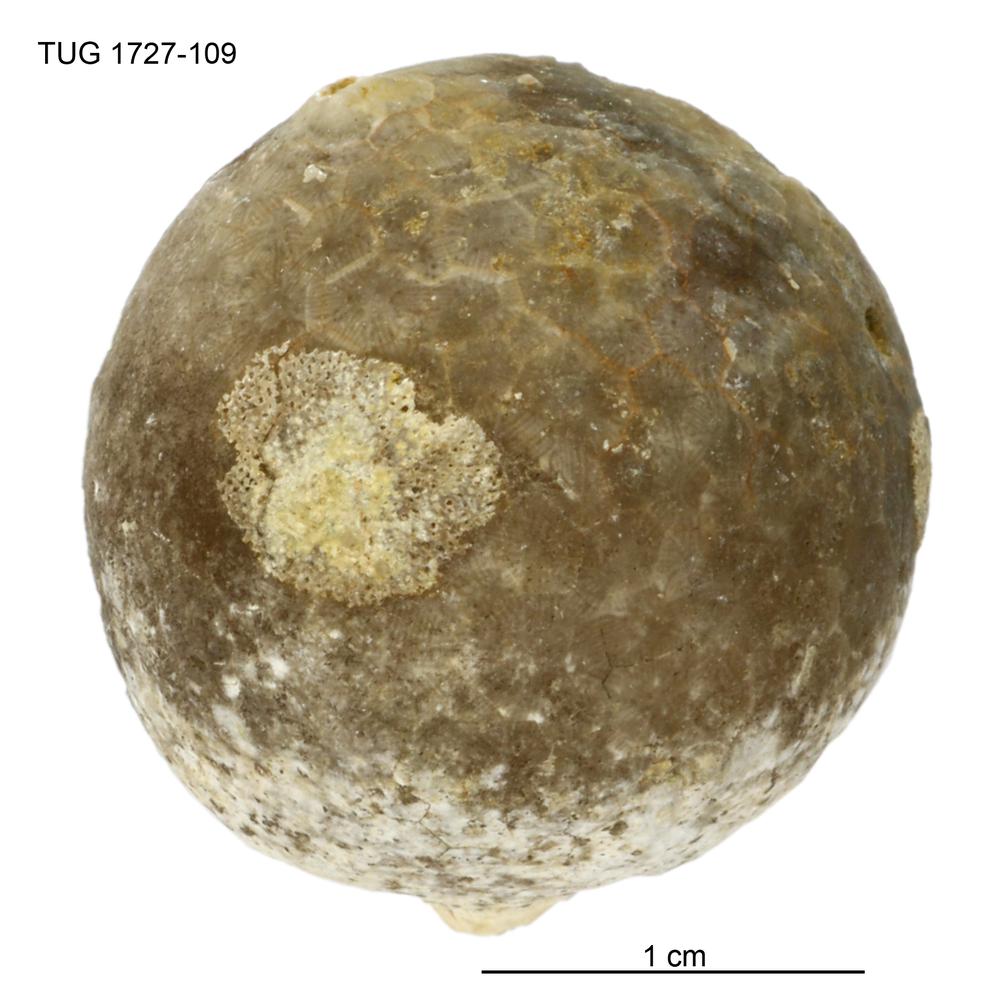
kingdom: Animalia
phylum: Echinodermata
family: Echinosphaeritidae
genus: Echinosphaerites
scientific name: Echinosphaerites Echinus aurantium
